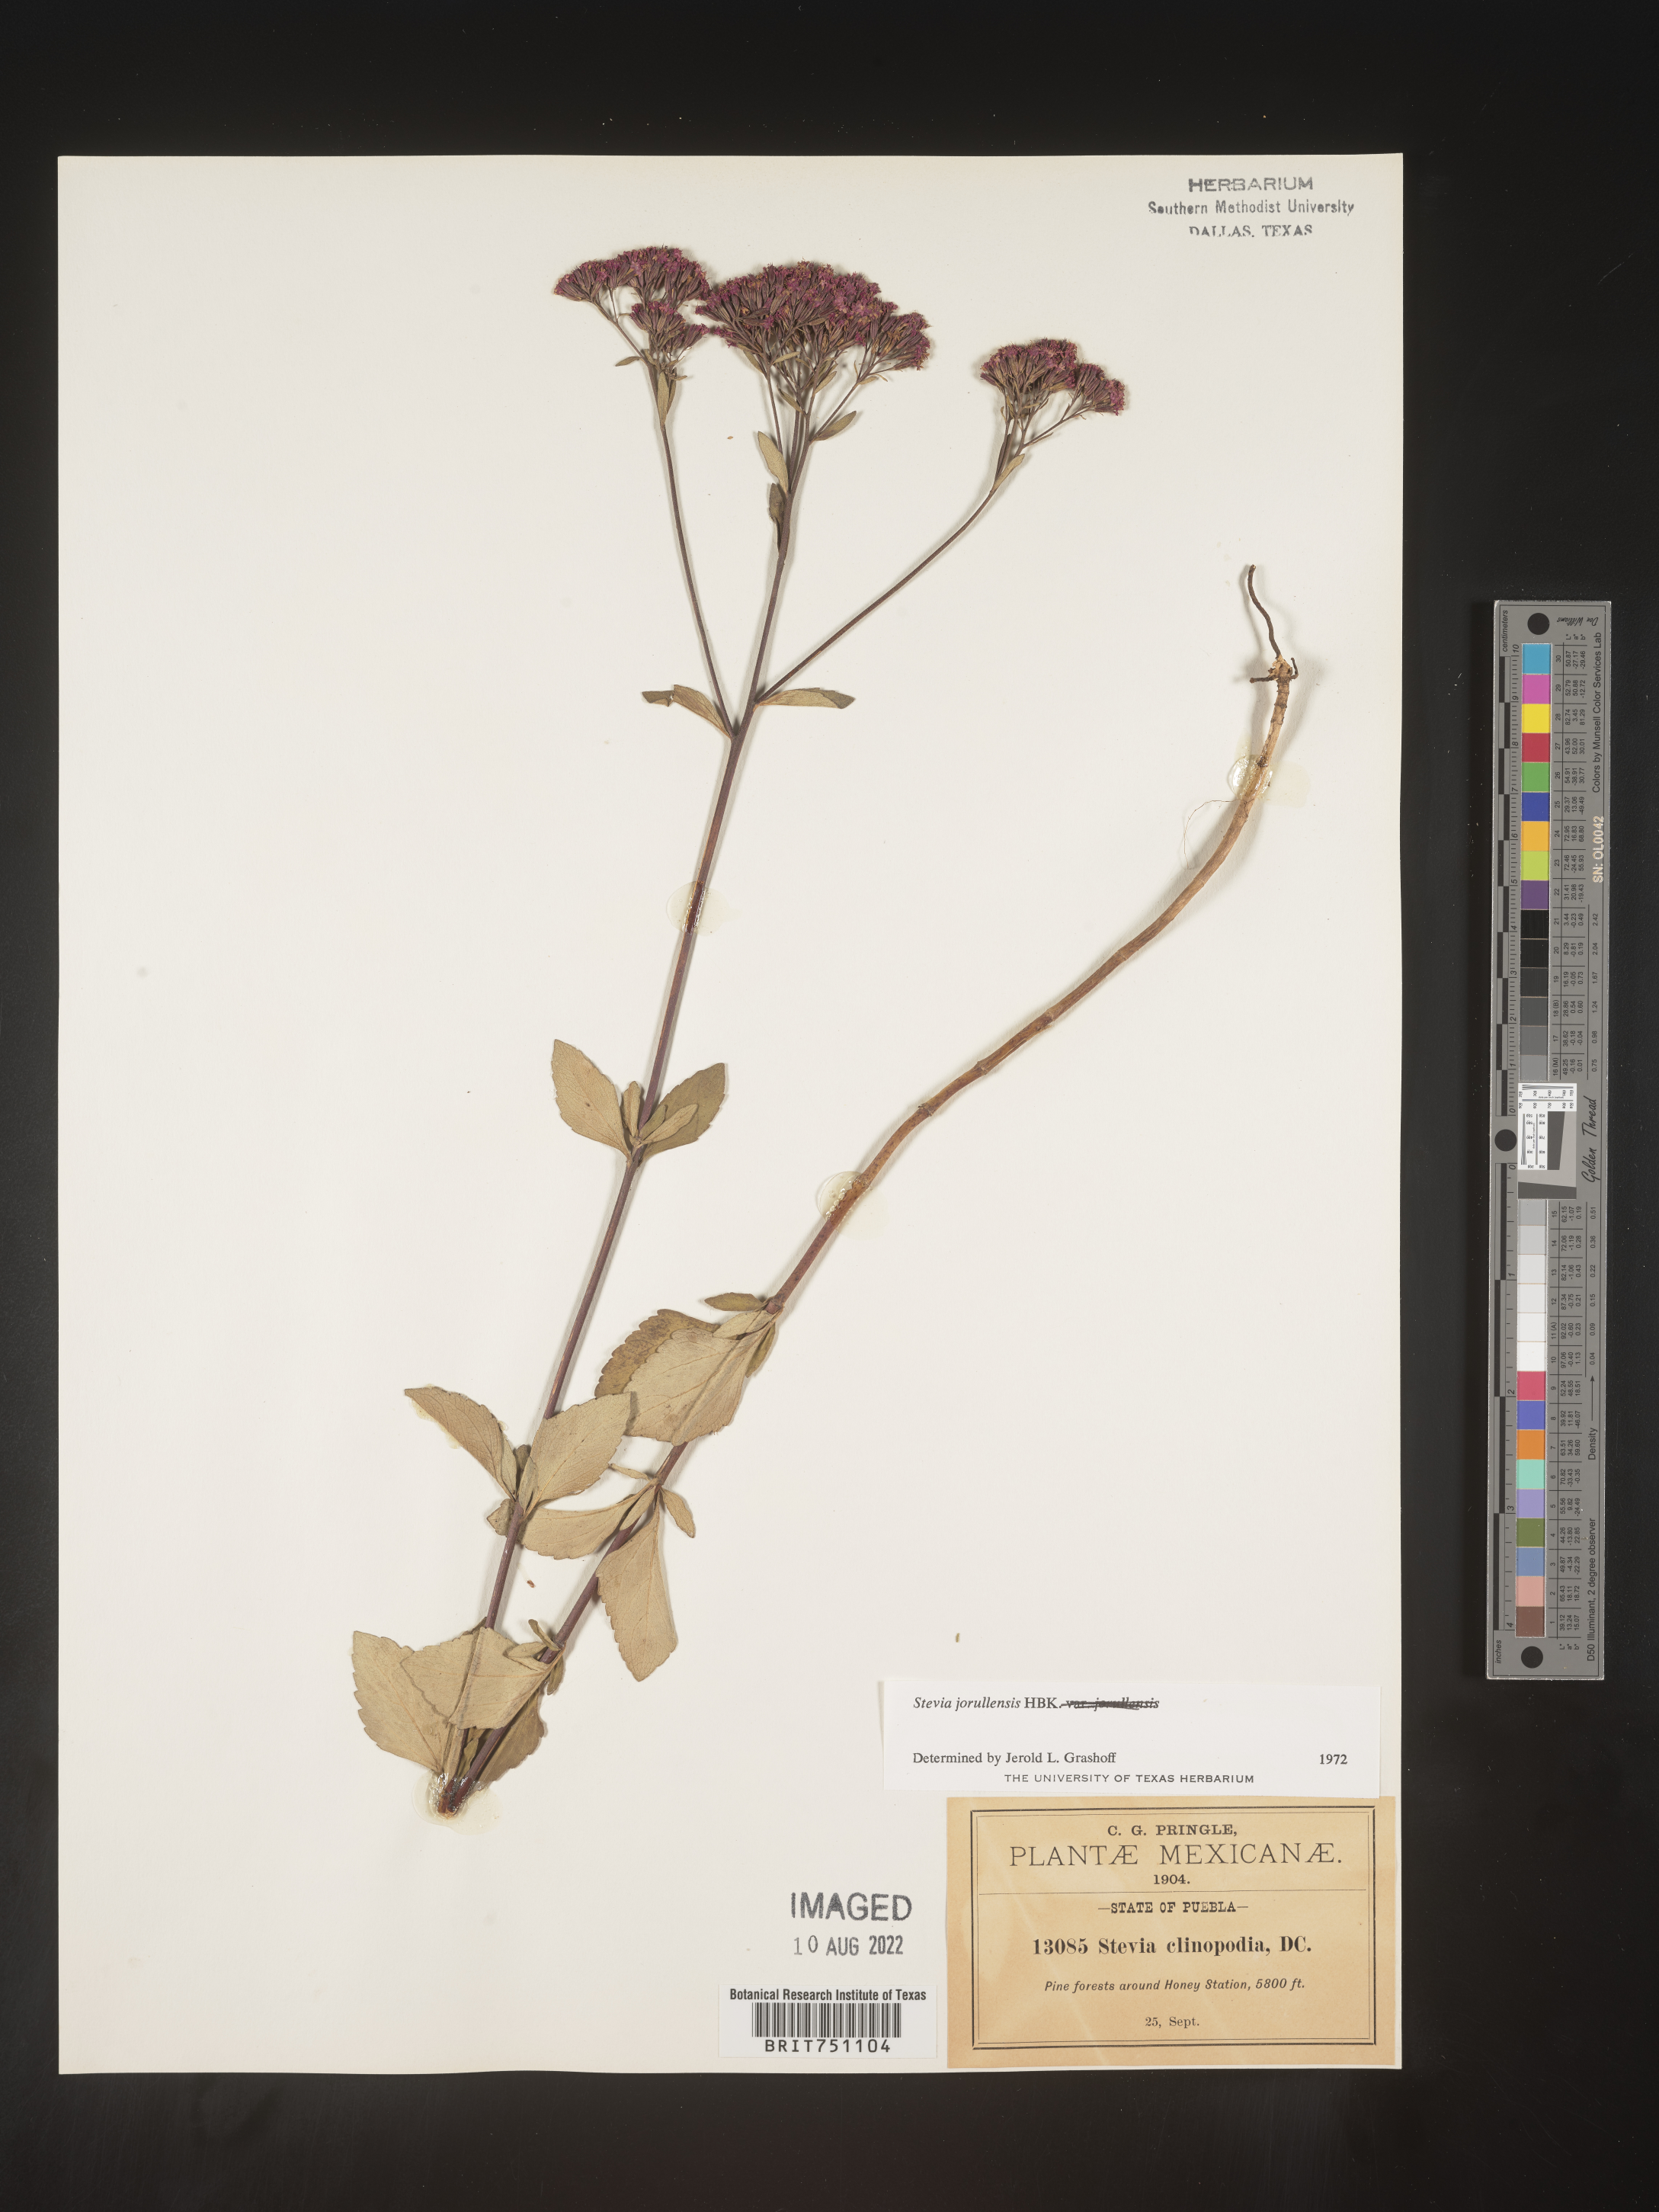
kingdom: Plantae
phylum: Tracheophyta
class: Magnoliopsida
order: Asterales
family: Asteraceae
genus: Stevia
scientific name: Stevia jorullensis
